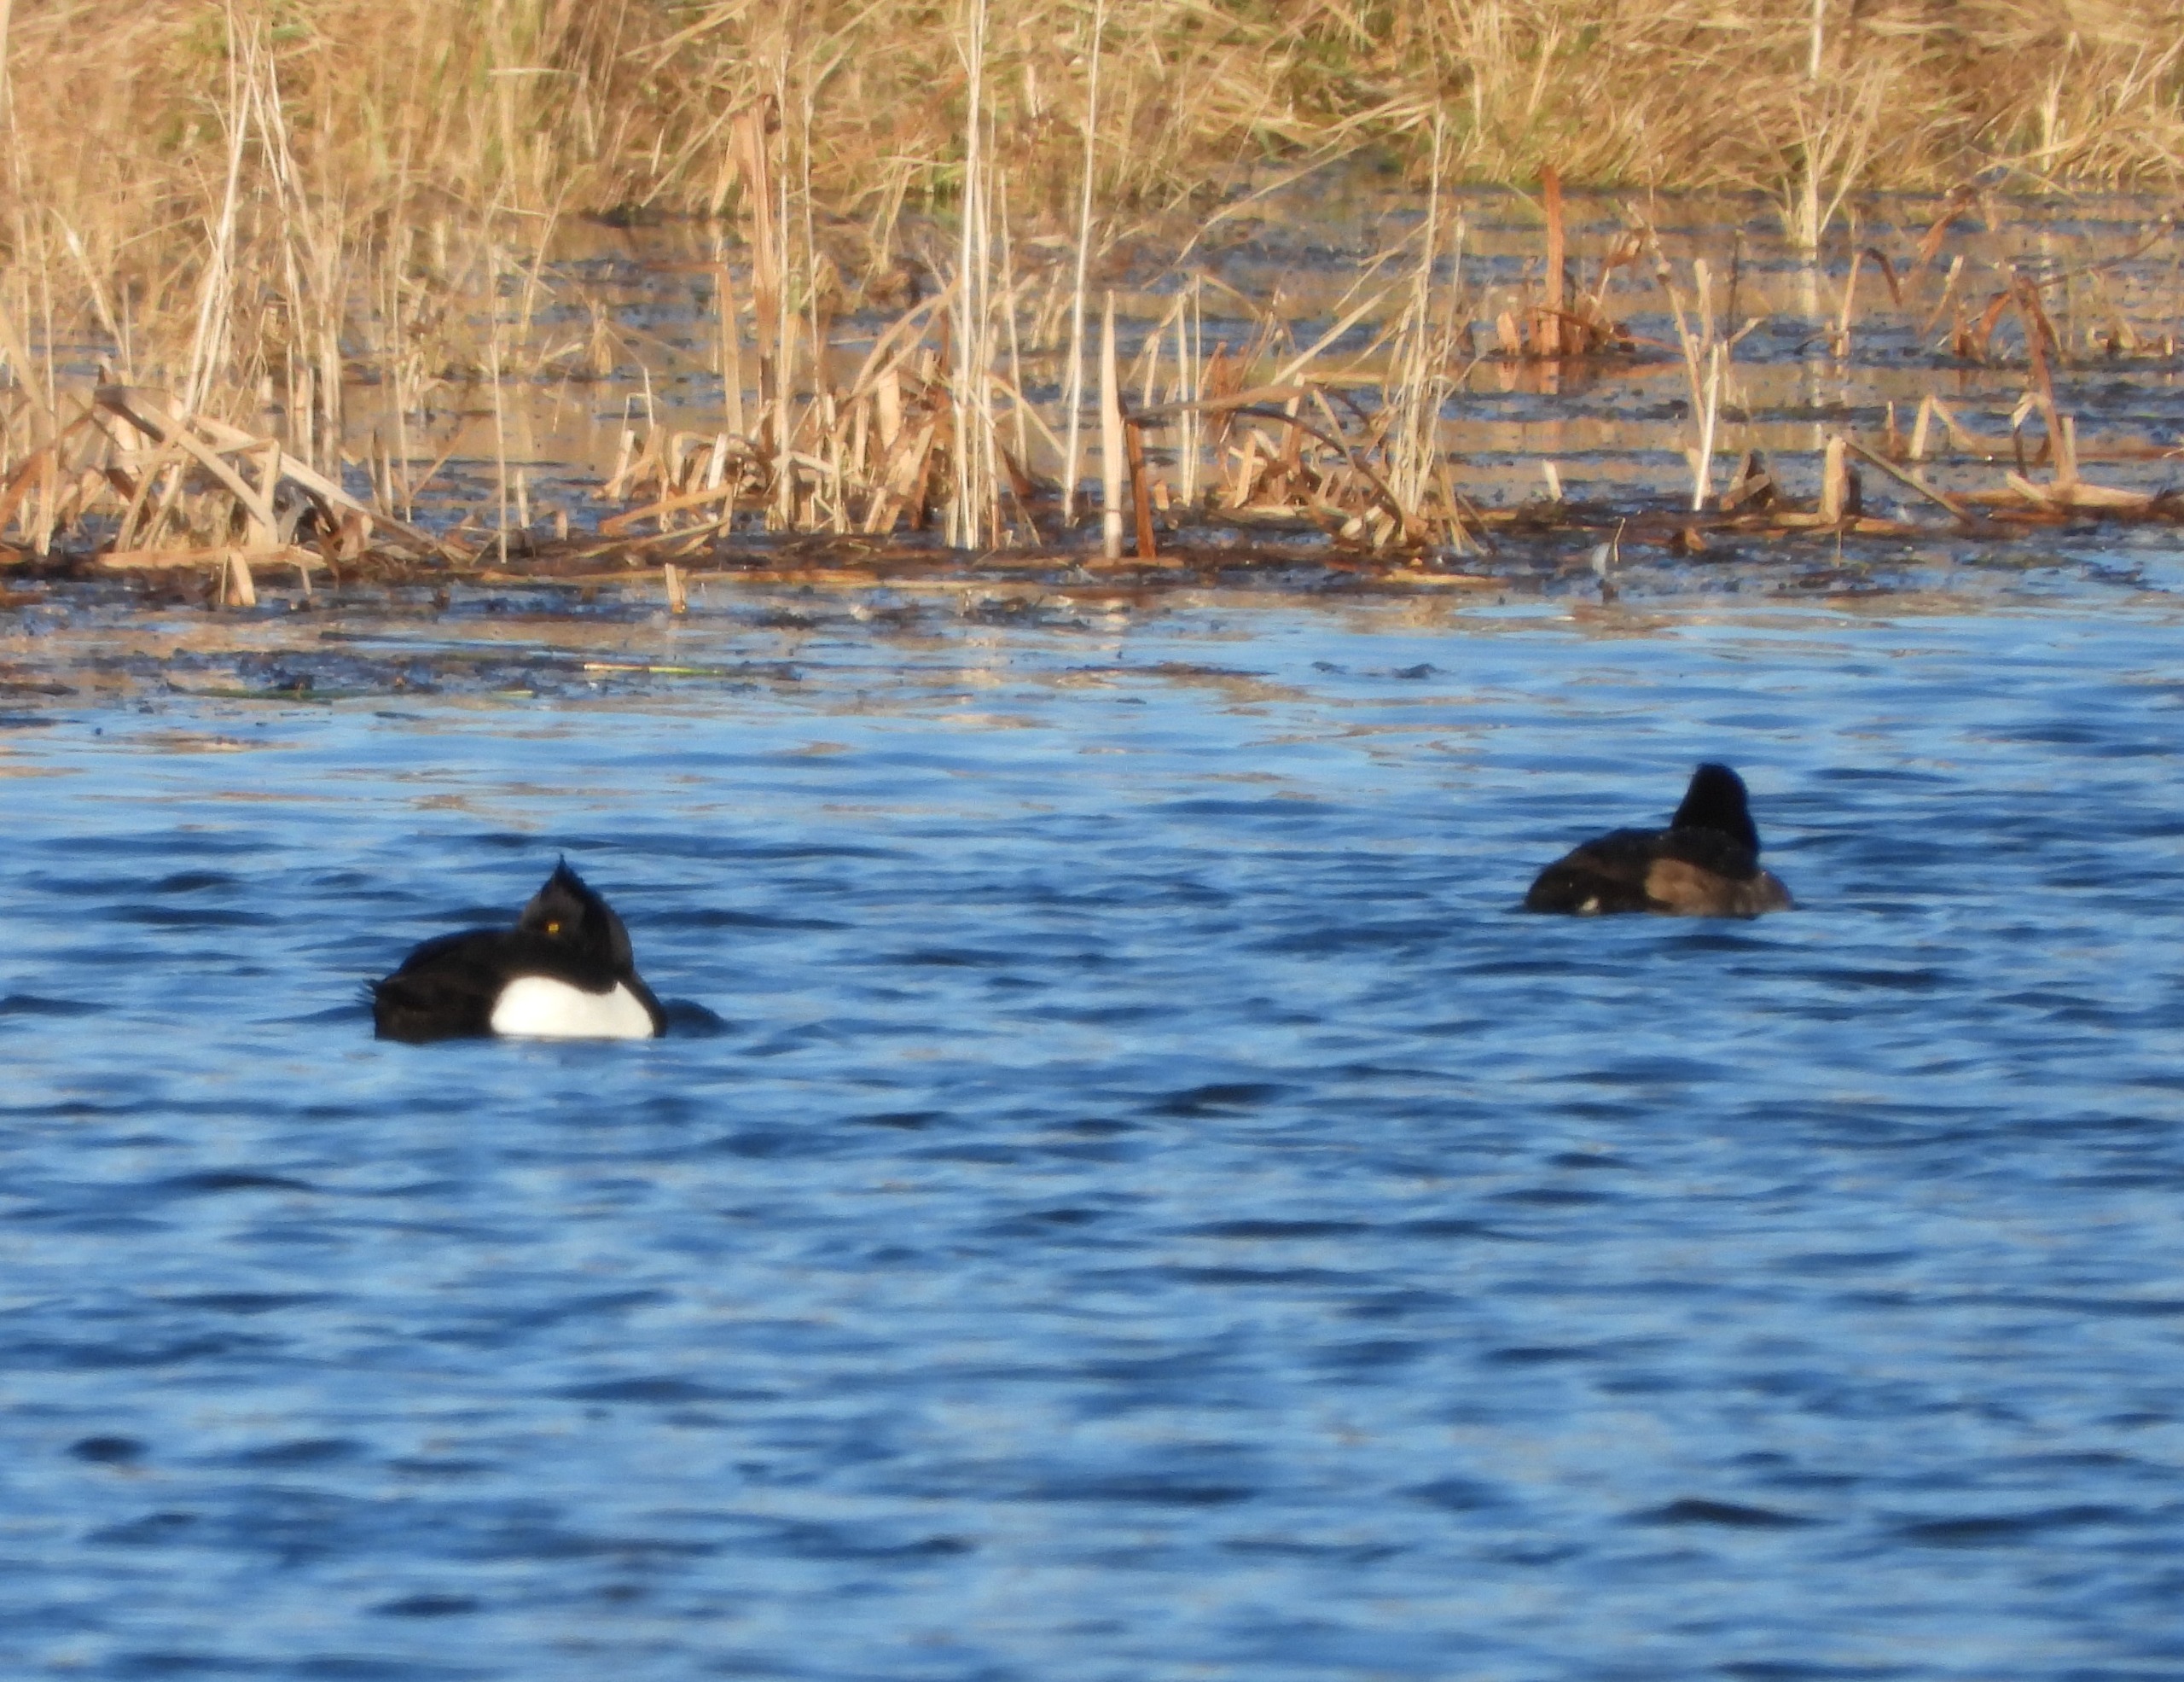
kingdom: Animalia
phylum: Chordata
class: Aves
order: Anseriformes
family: Anatidae
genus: Aythya
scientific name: Aythya fuligula
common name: Troldand
